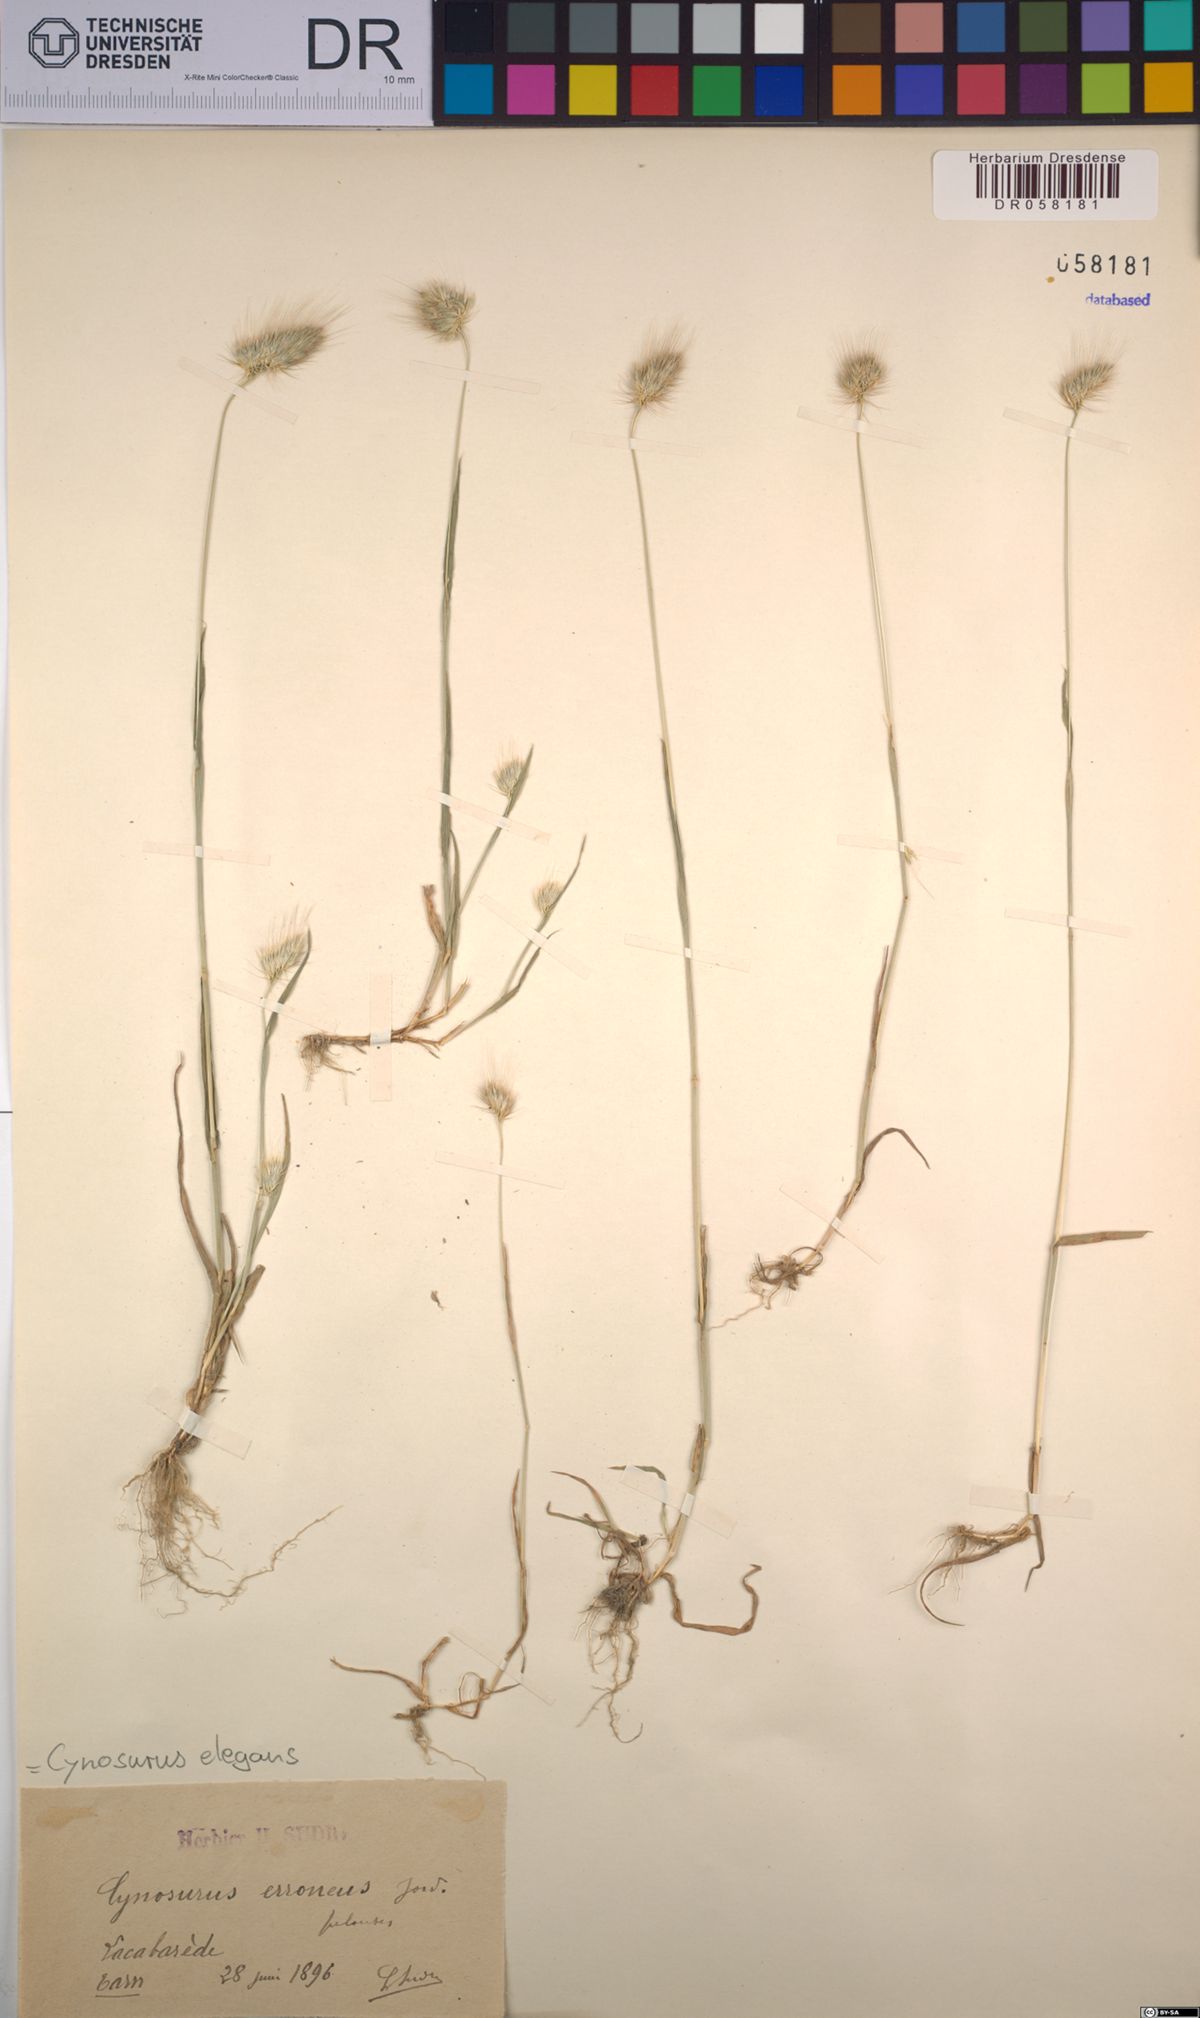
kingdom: Plantae
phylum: Tracheophyta
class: Liliopsida
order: Poales
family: Poaceae
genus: Cynosurus
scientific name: Cynosurus elegans
